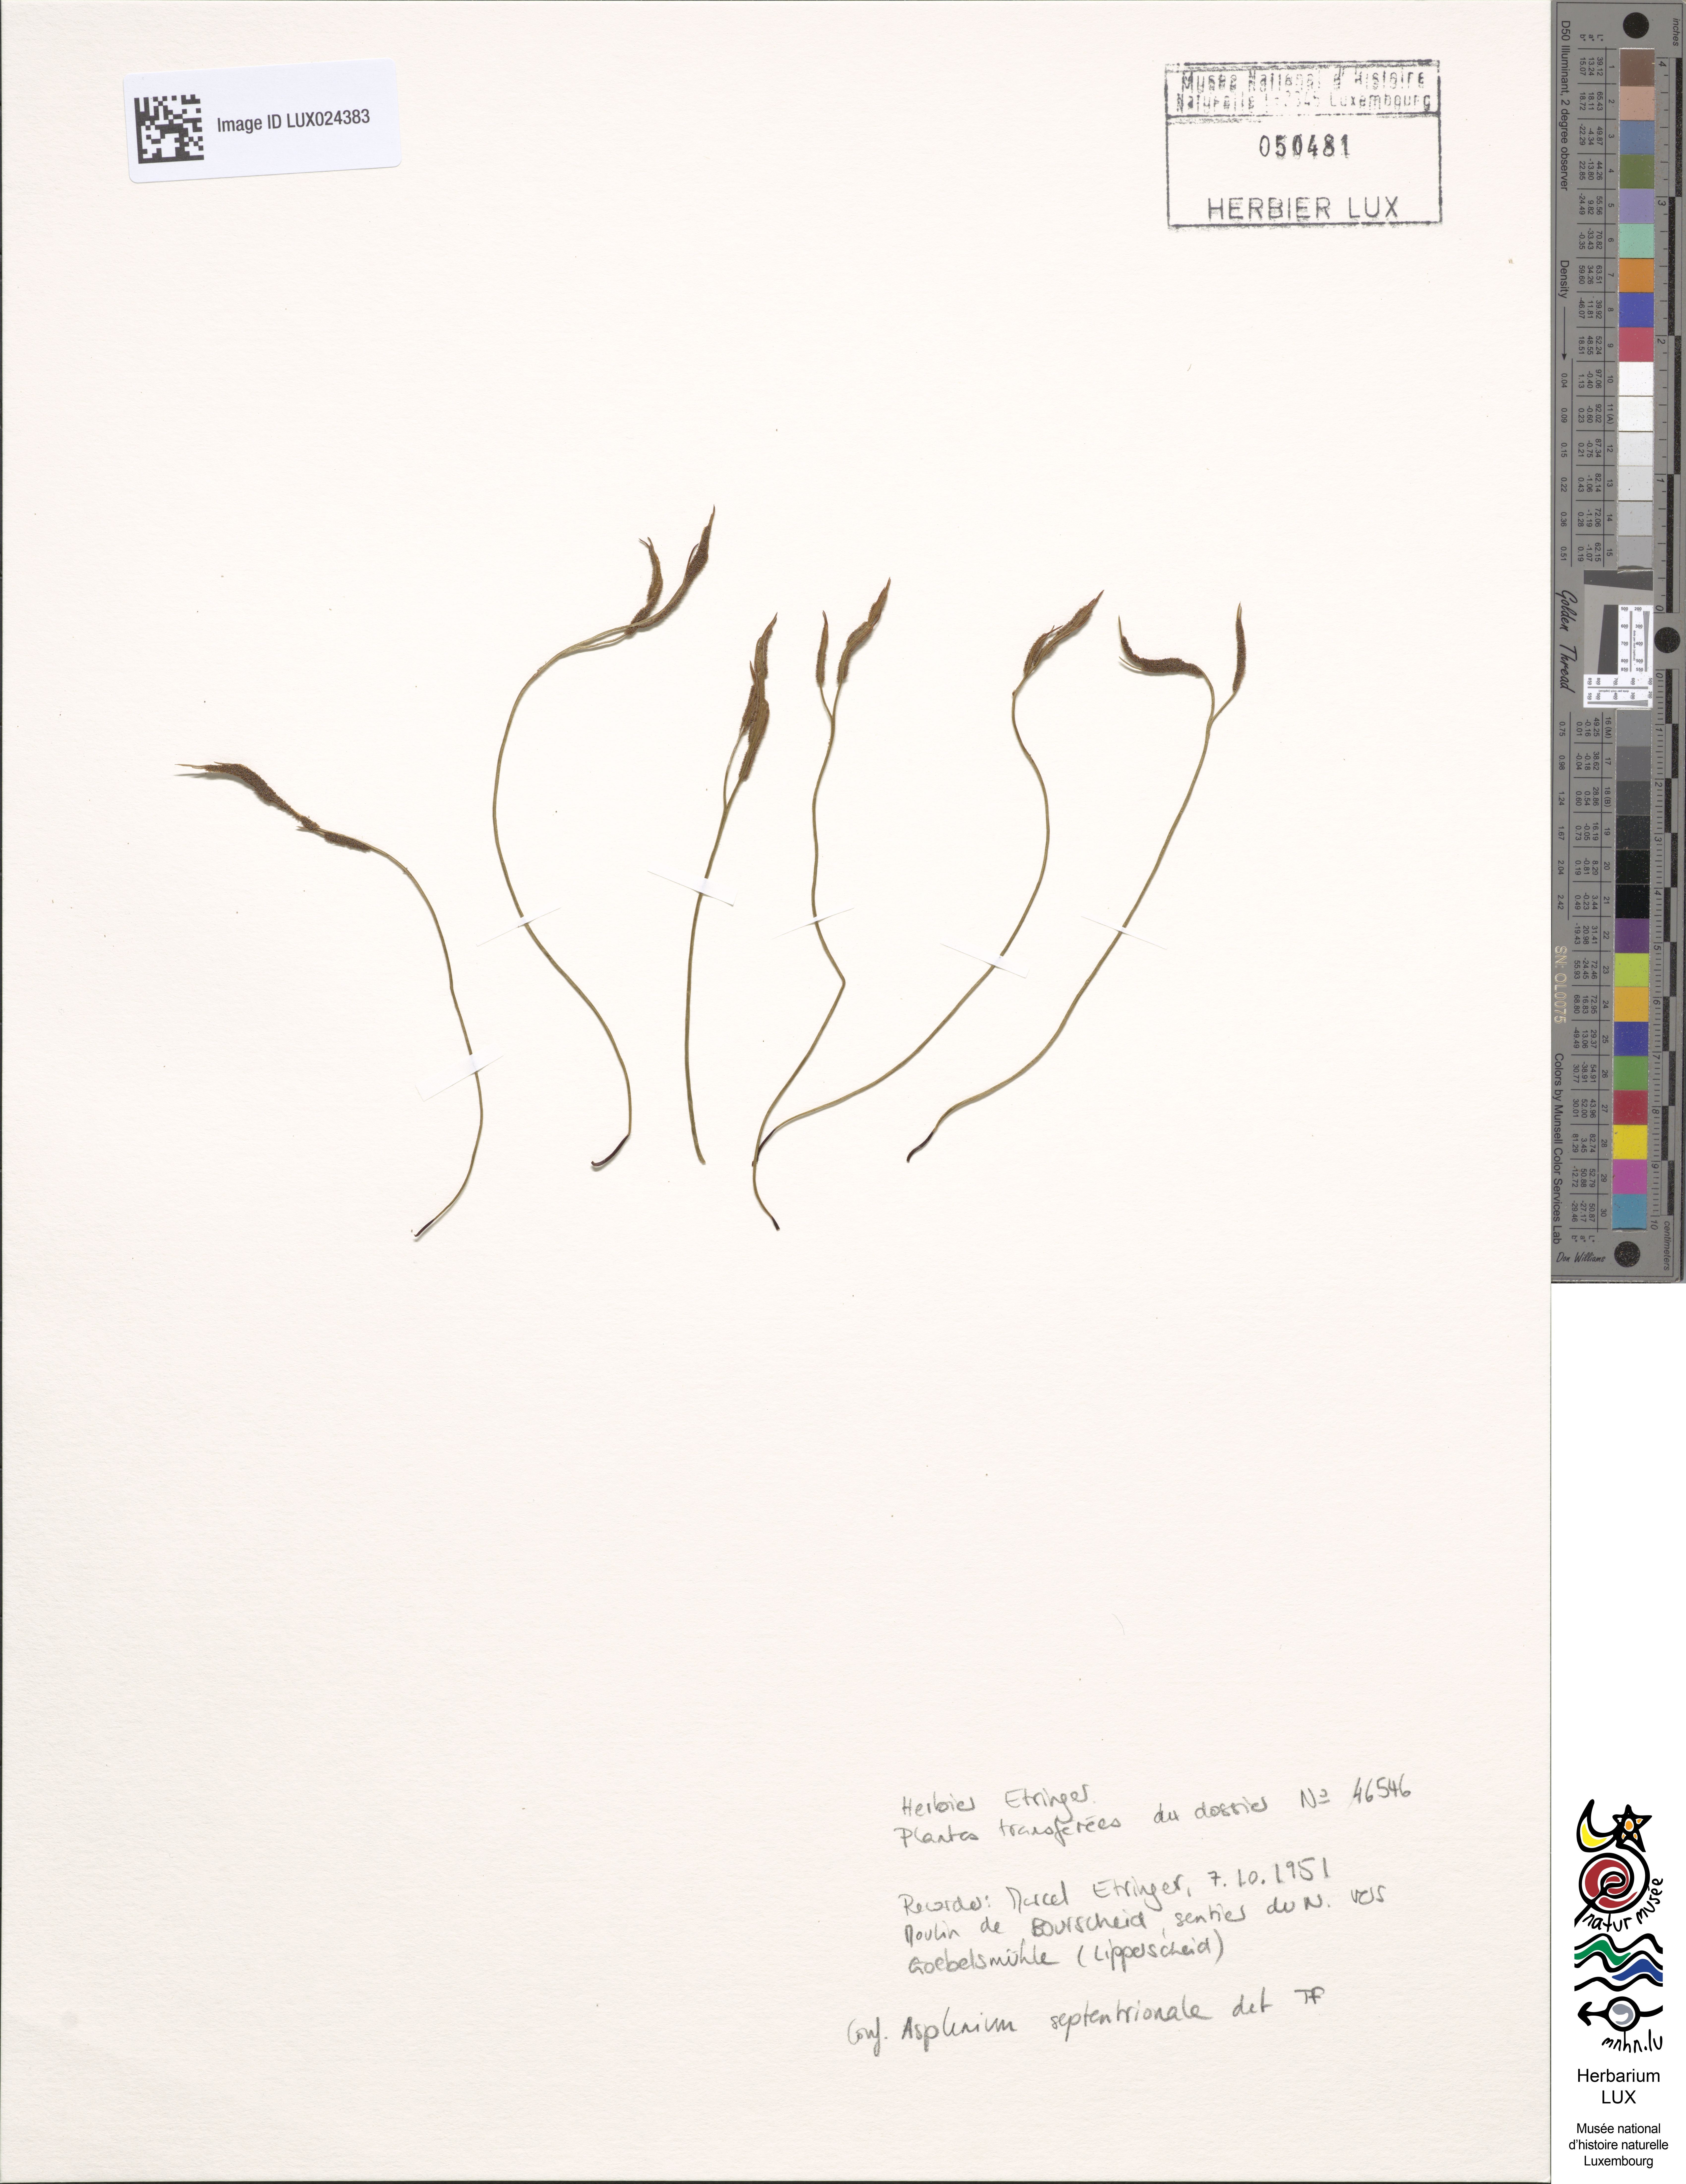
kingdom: Plantae
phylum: Tracheophyta
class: Polypodiopsida
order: Polypodiales
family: Aspleniaceae
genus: Asplenium
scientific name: Asplenium septentrionale
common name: Forked spleenwort
